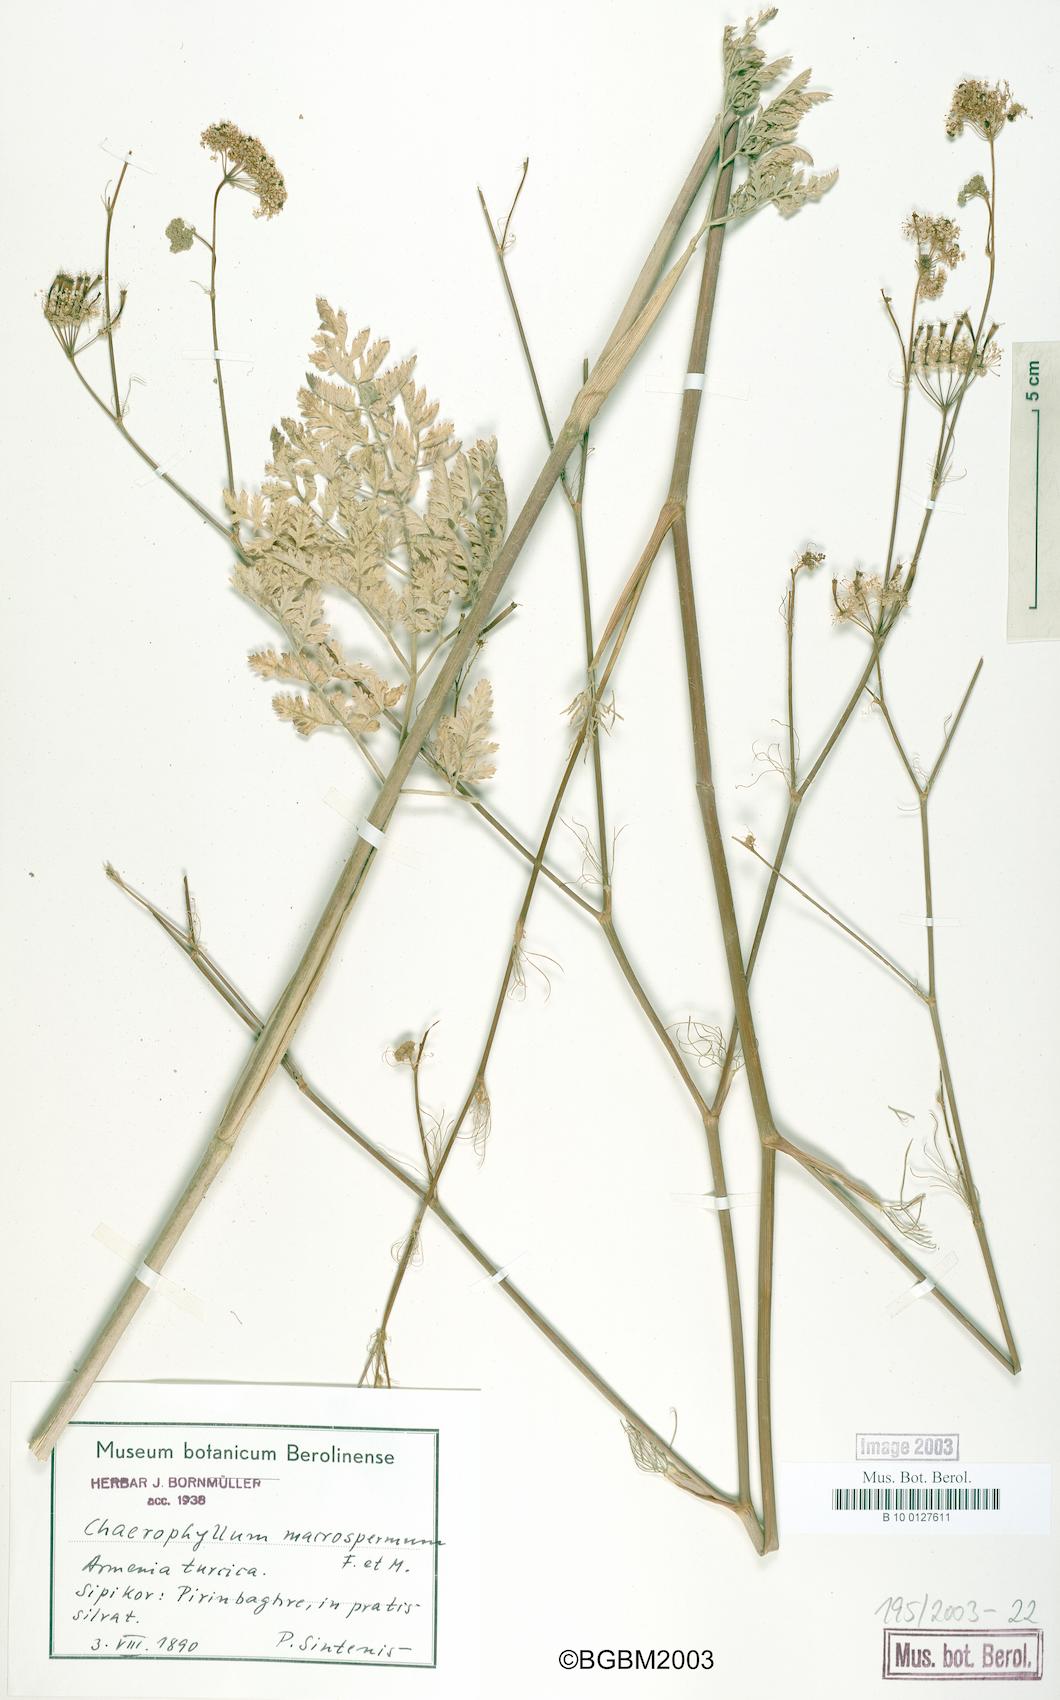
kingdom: Plantae
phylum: Tracheophyta
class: Magnoliopsida
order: Apiales
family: Apiaceae
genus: Chaerophyllum
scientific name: Chaerophyllum macrospermum
